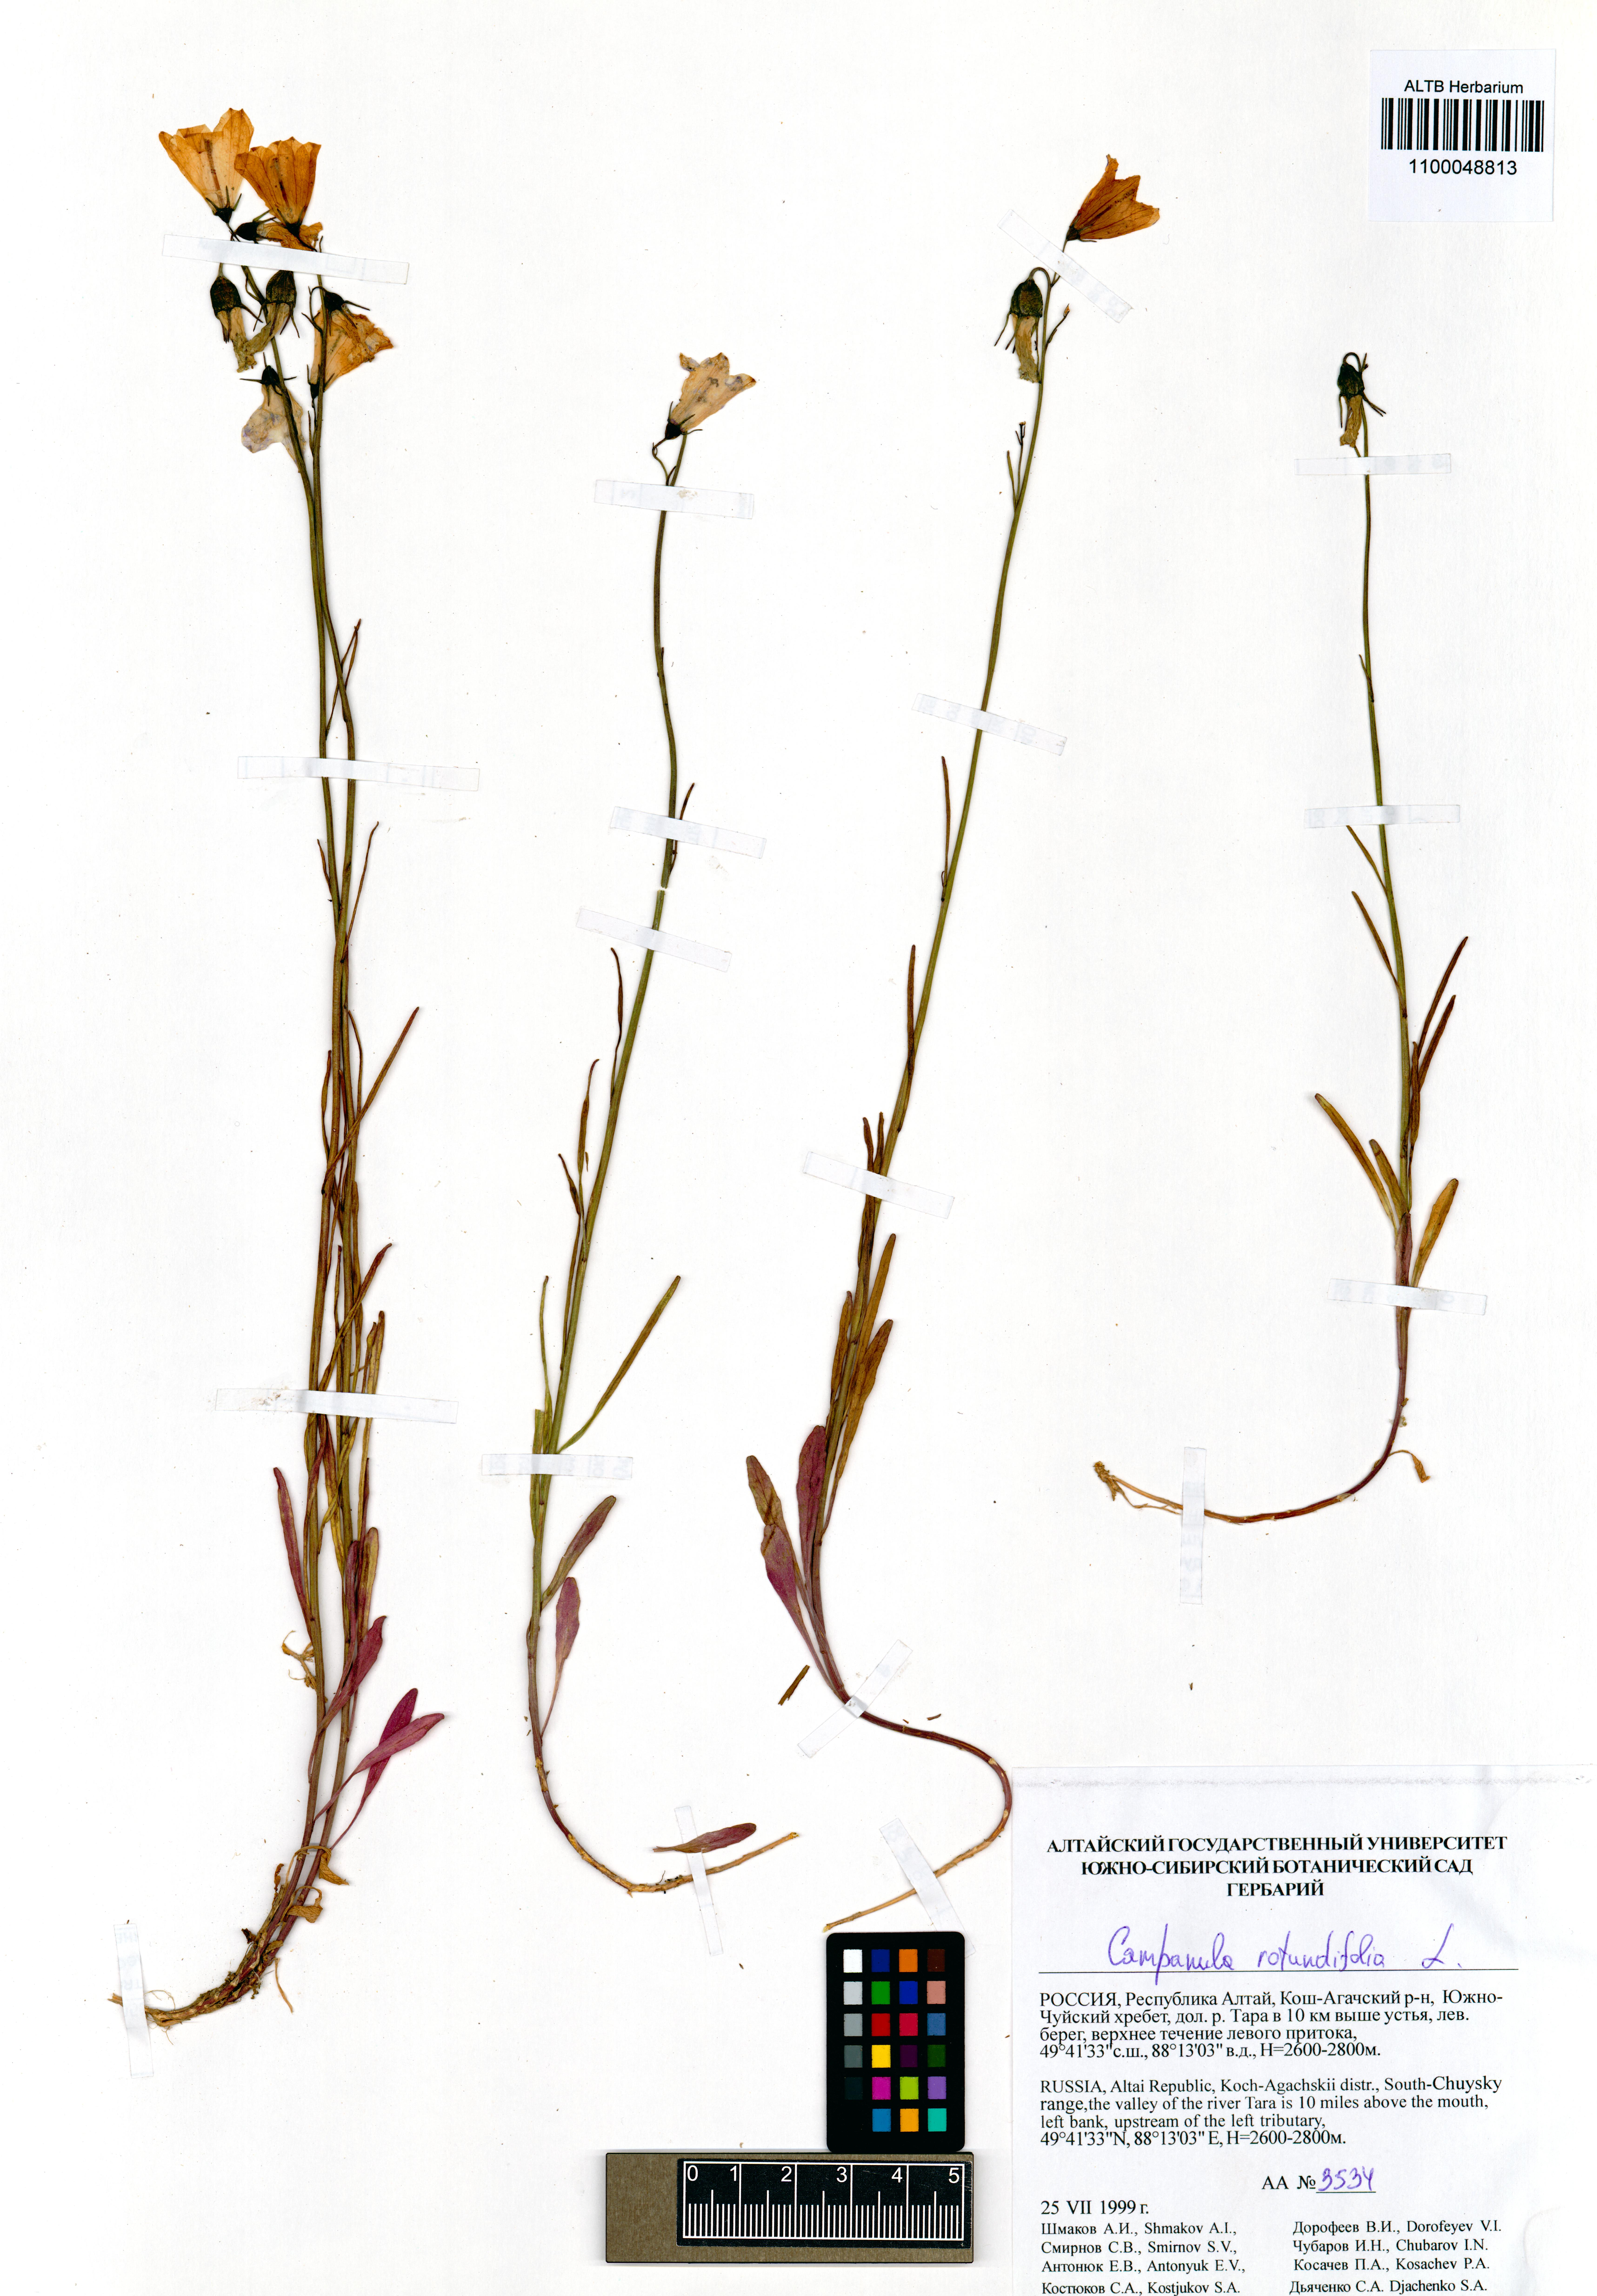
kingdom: Plantae
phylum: Tracheophyta
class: Magnoliopsida
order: Asterales
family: Campanulaceae
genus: Campanula
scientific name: Campanula rotundifolia
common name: Harebell
